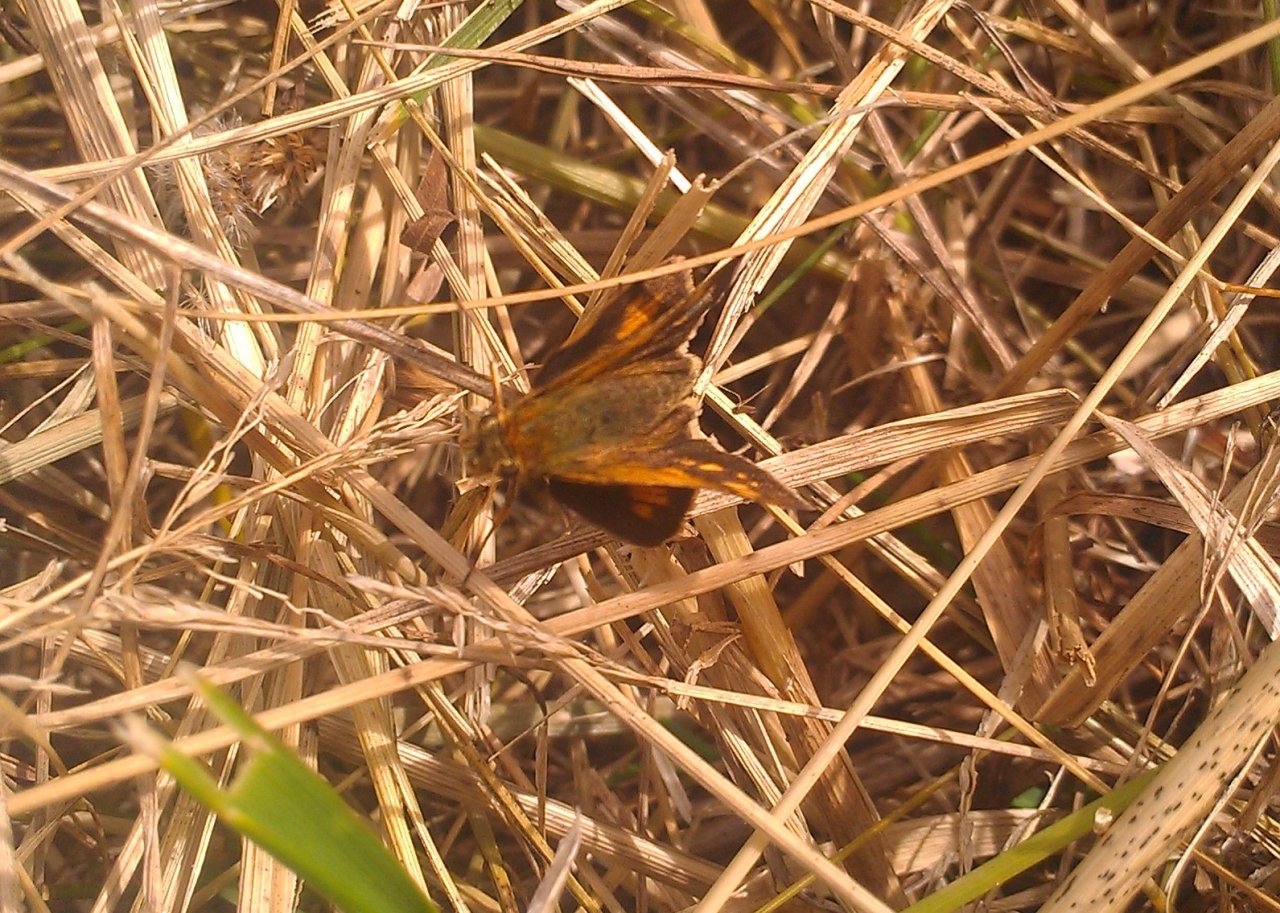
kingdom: Animalia
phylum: Arthropoda
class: Insecta
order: Lepidoptera
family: Hesperiidae
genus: Polites
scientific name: Polites coras
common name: Peck's Skipper
